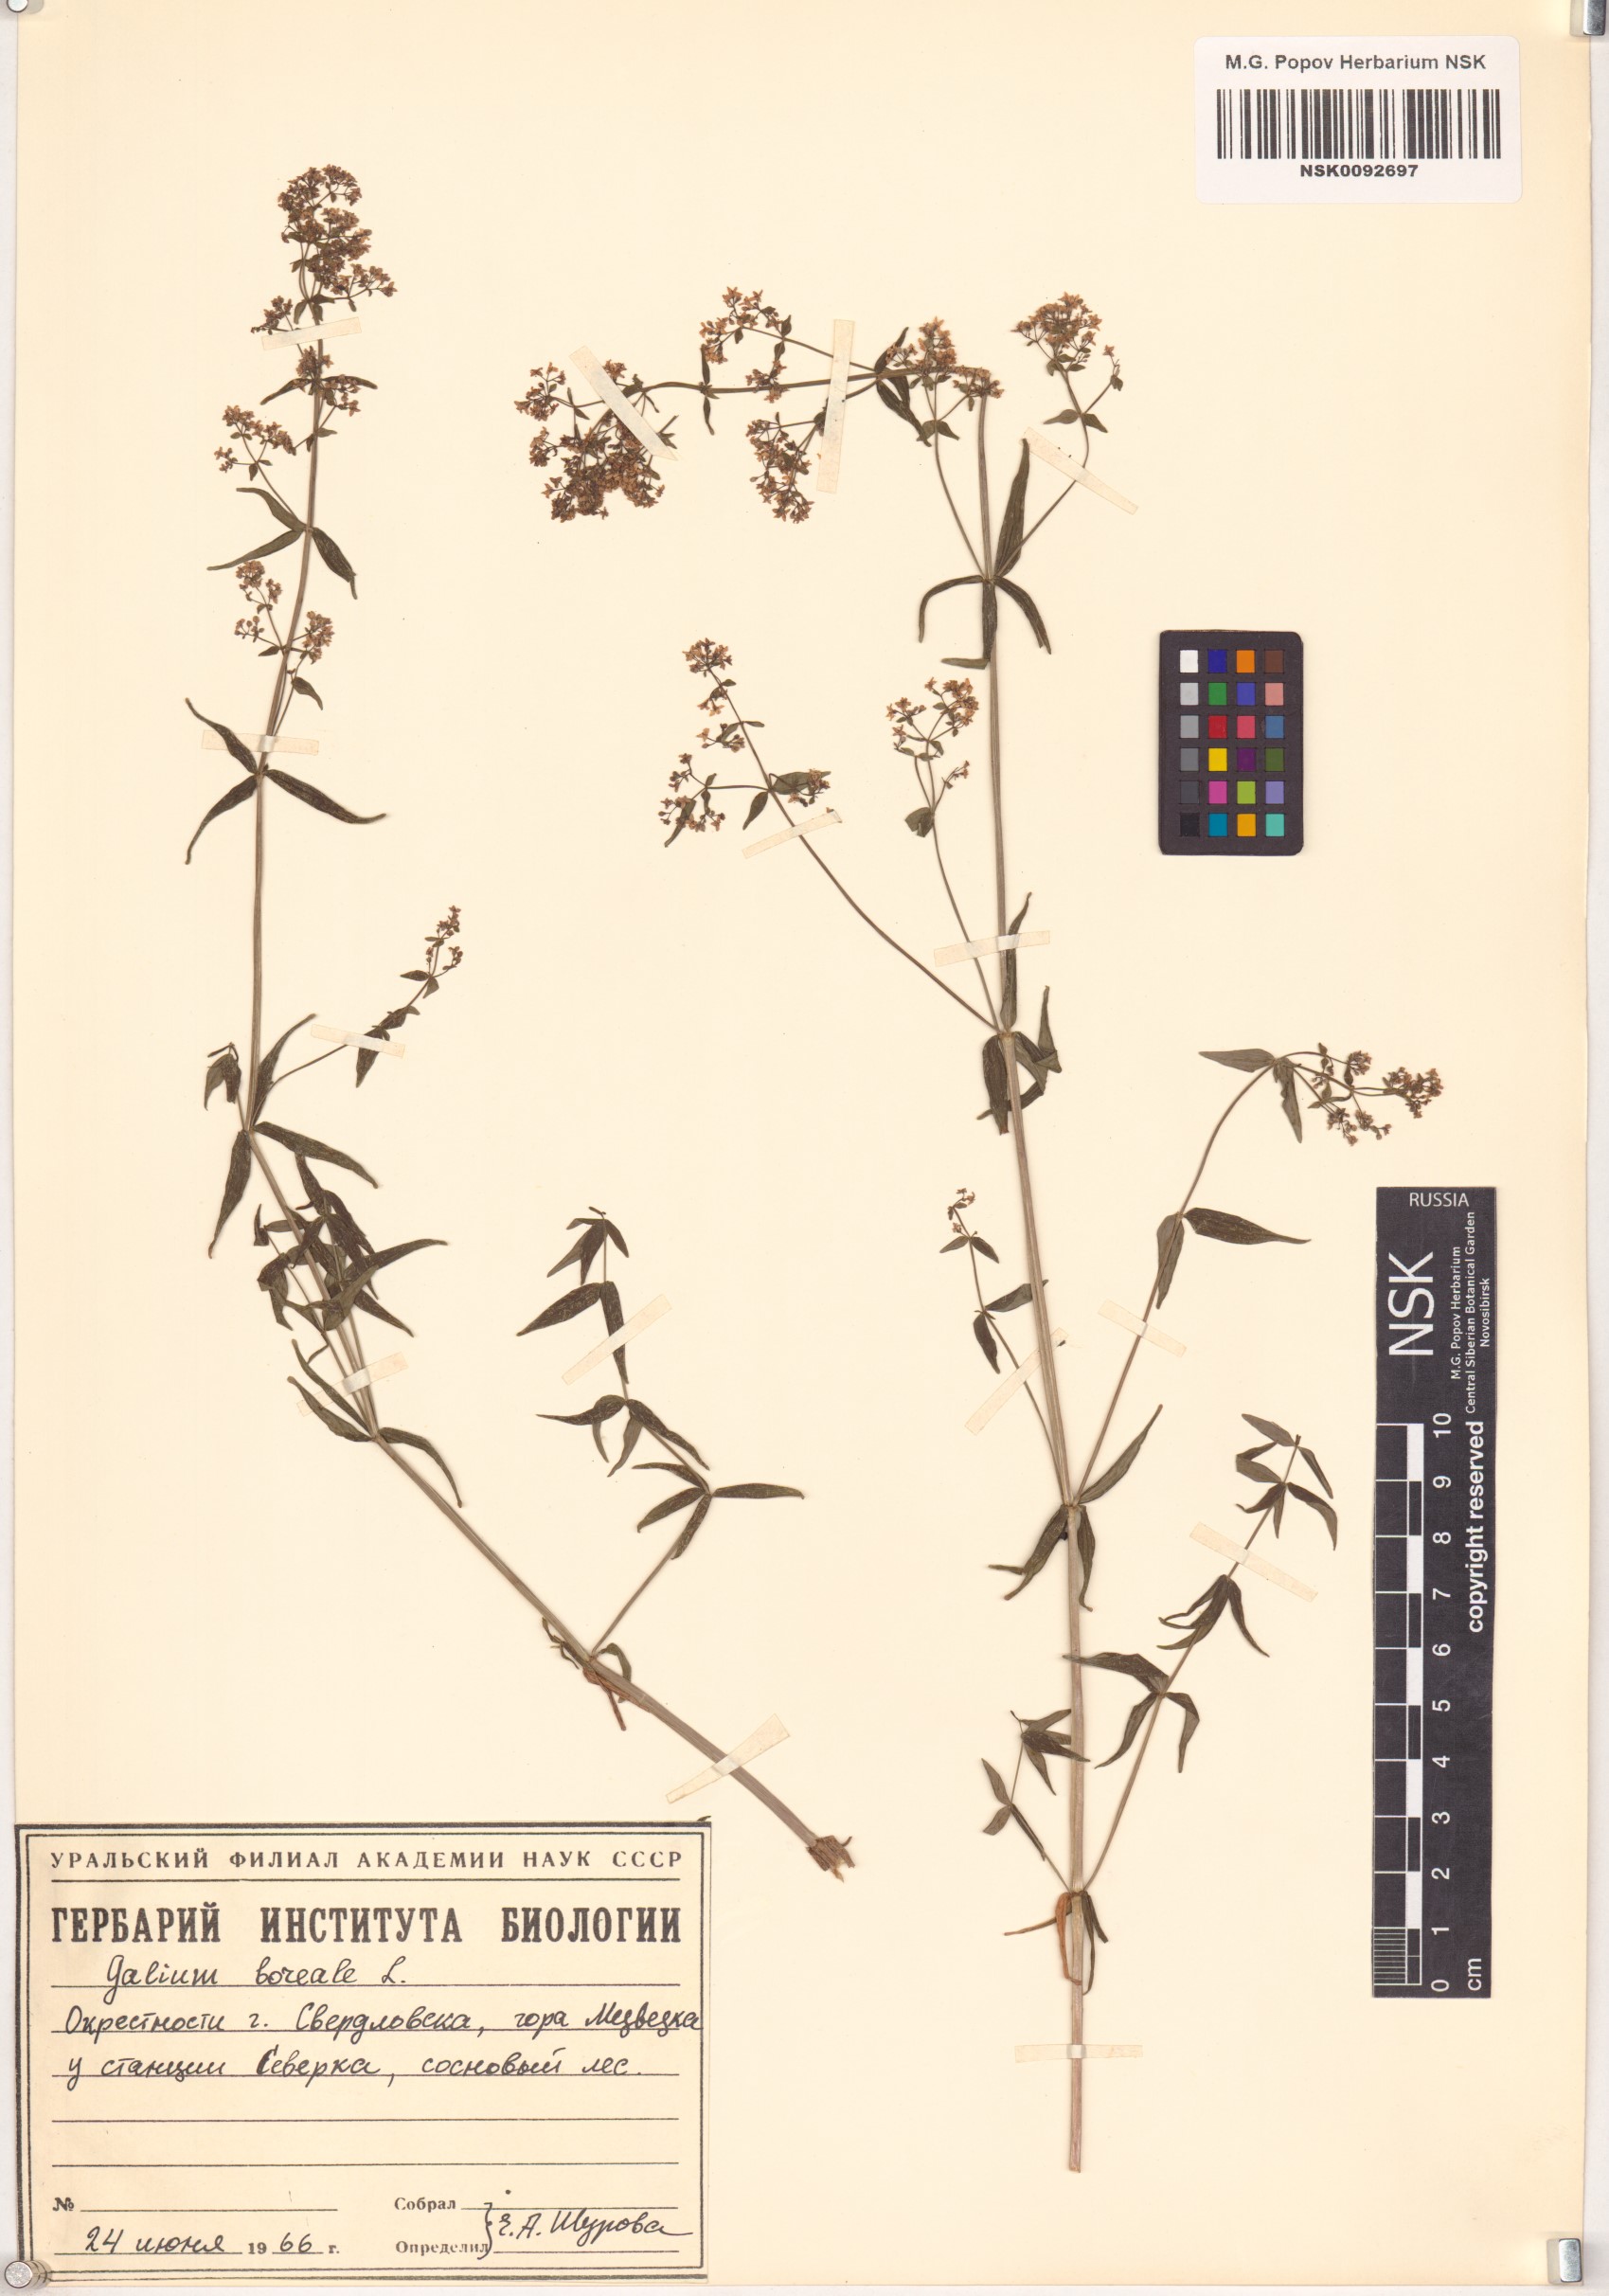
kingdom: Plantae
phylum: Tracheophyta
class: Magnoliopsida
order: Gentianales
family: Rubiaceae
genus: Galium
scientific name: Galium boreale
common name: Northern bedstraw
